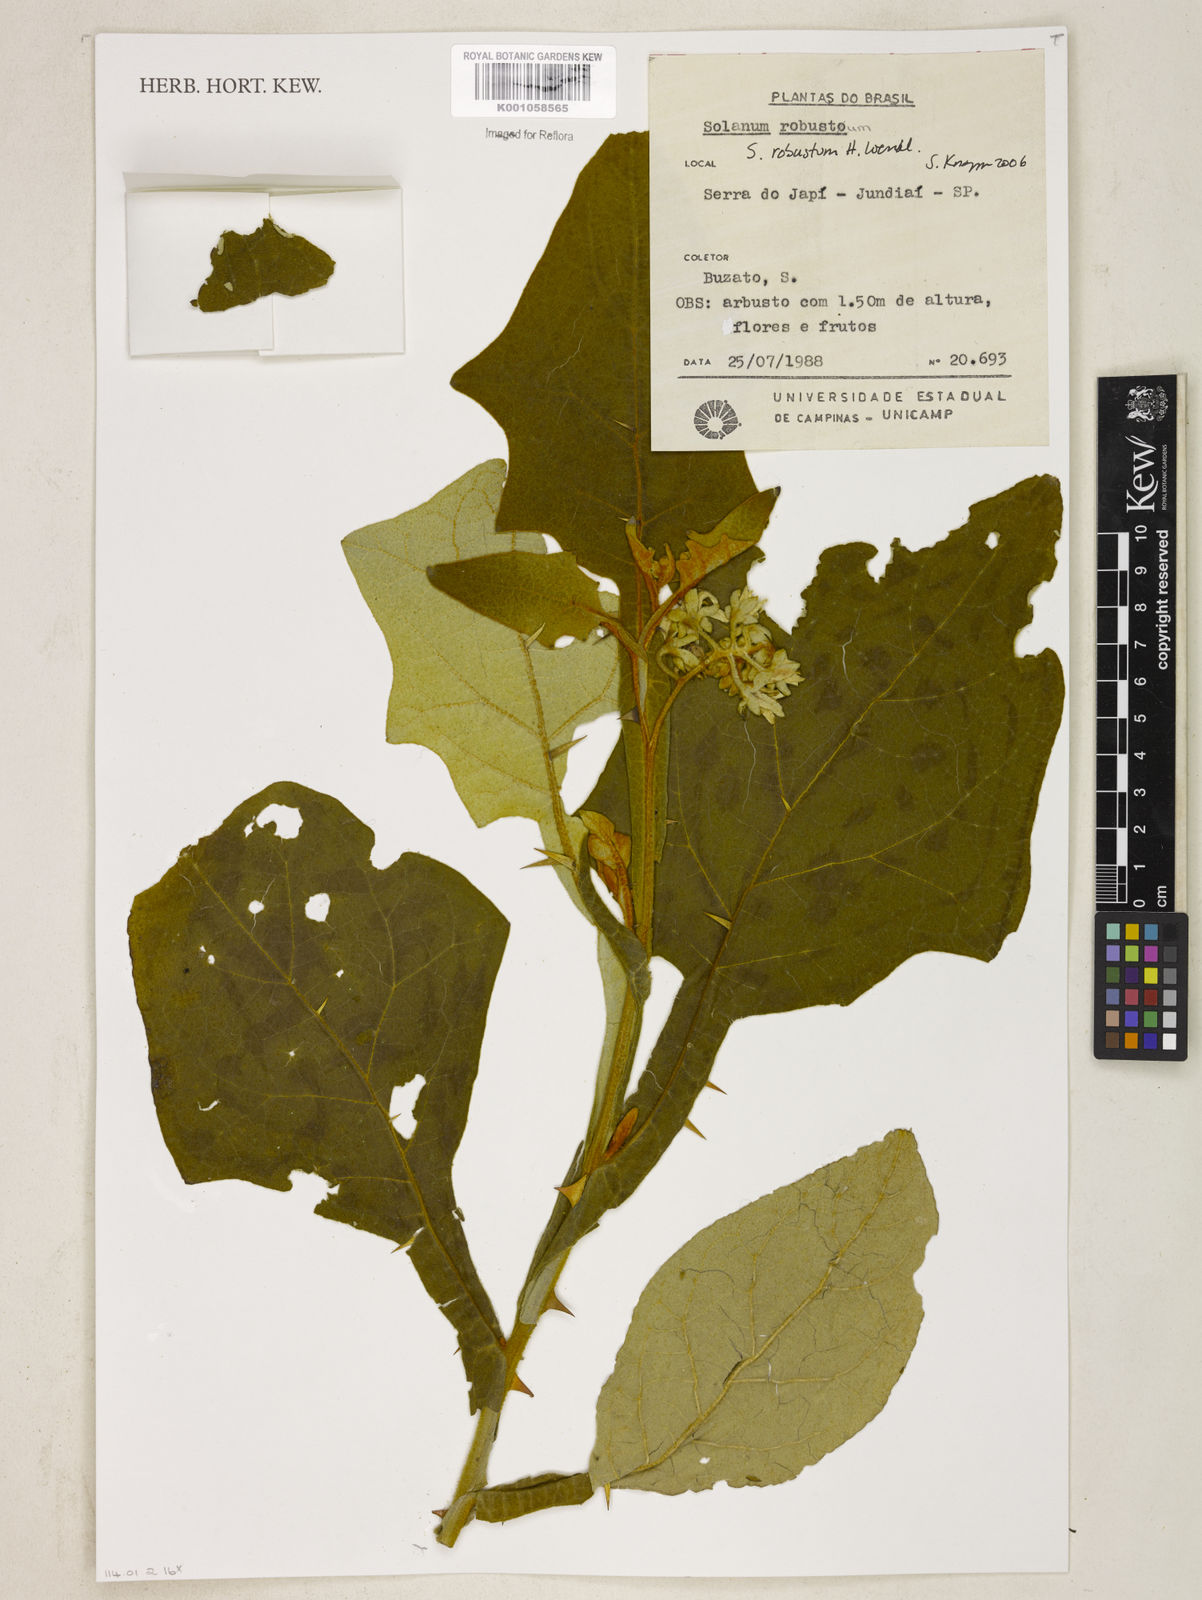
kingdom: Plantae
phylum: Tracheophyta
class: Magnoliopsida
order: Solanales
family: Solanaceae
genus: Solanum
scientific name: Solanum robustum
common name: Shrubby nightshade
